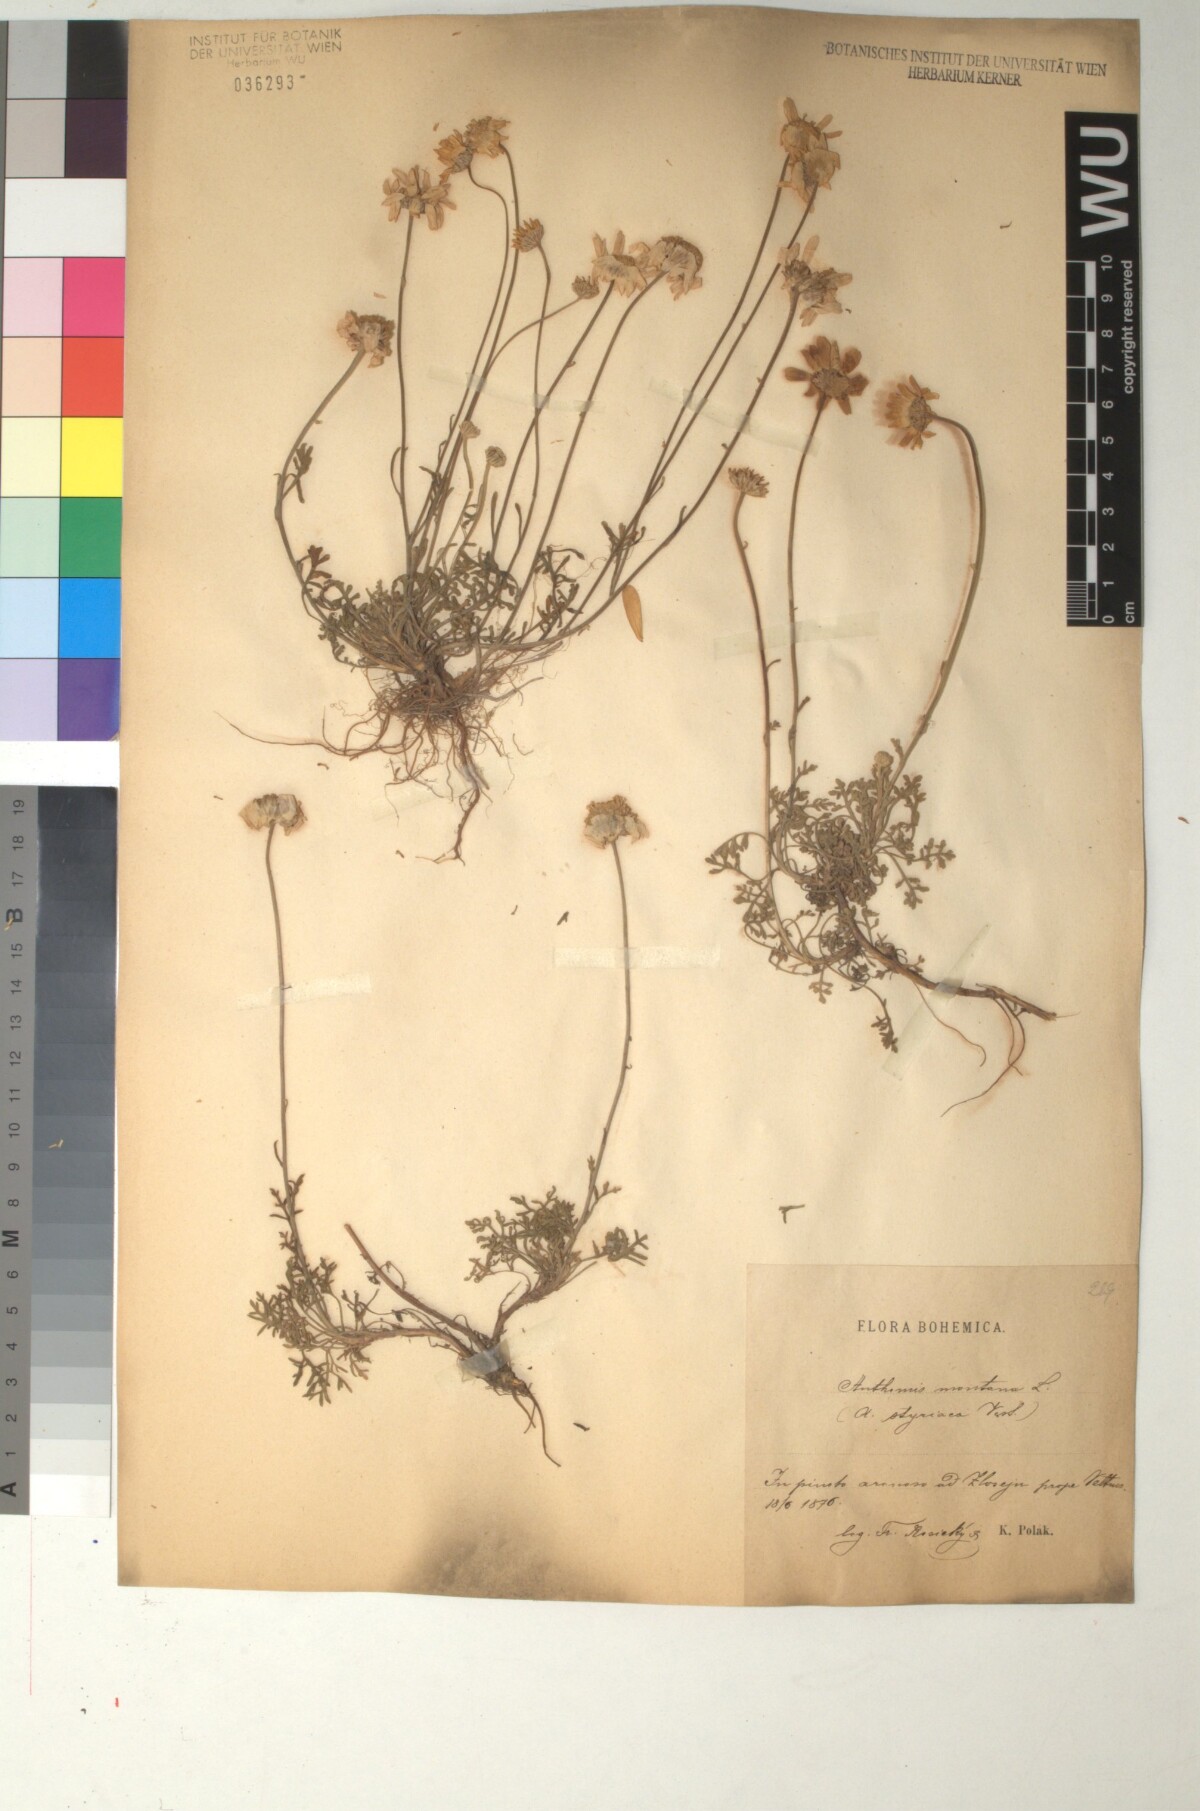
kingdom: Plantae
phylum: Tracheophyta
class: Magnoliopsida
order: Asterales
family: Asteraceae
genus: Anthemis
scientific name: Anthemis cretica
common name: Mountain dog-daisy
